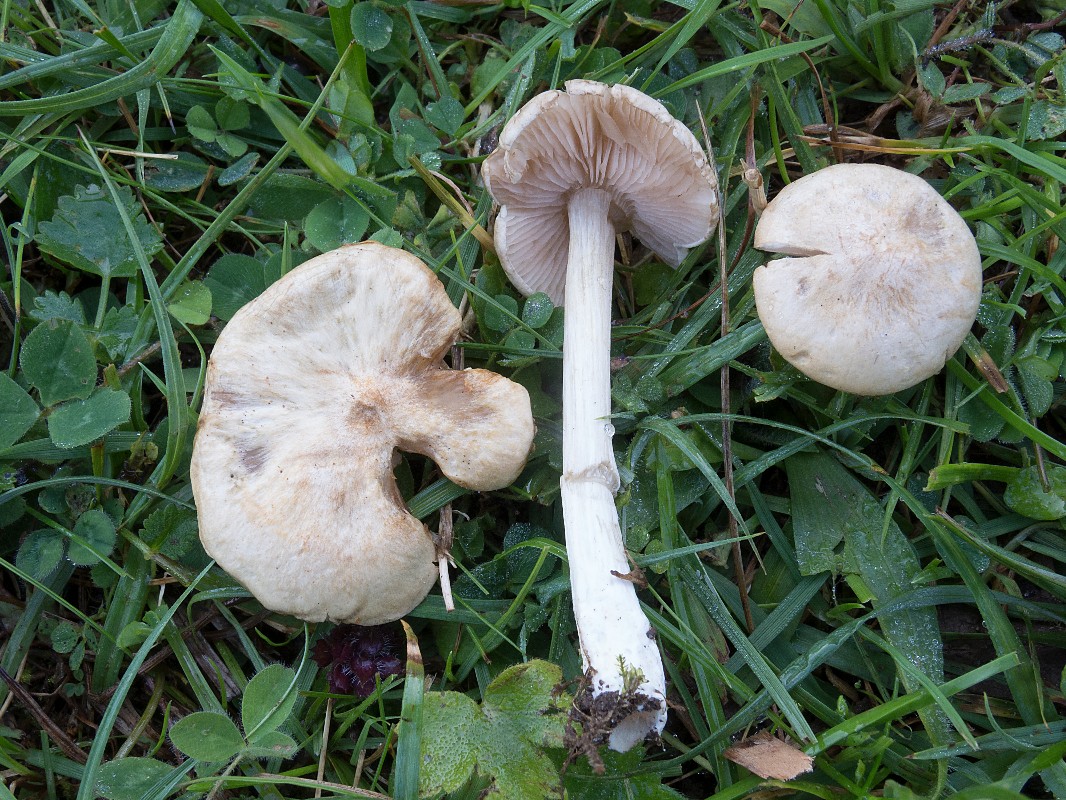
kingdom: Fungi
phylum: Basidiomycota
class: Agaricomycetes
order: Agaricales
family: Entolomataceae
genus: Entoloma
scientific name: Entoloma
